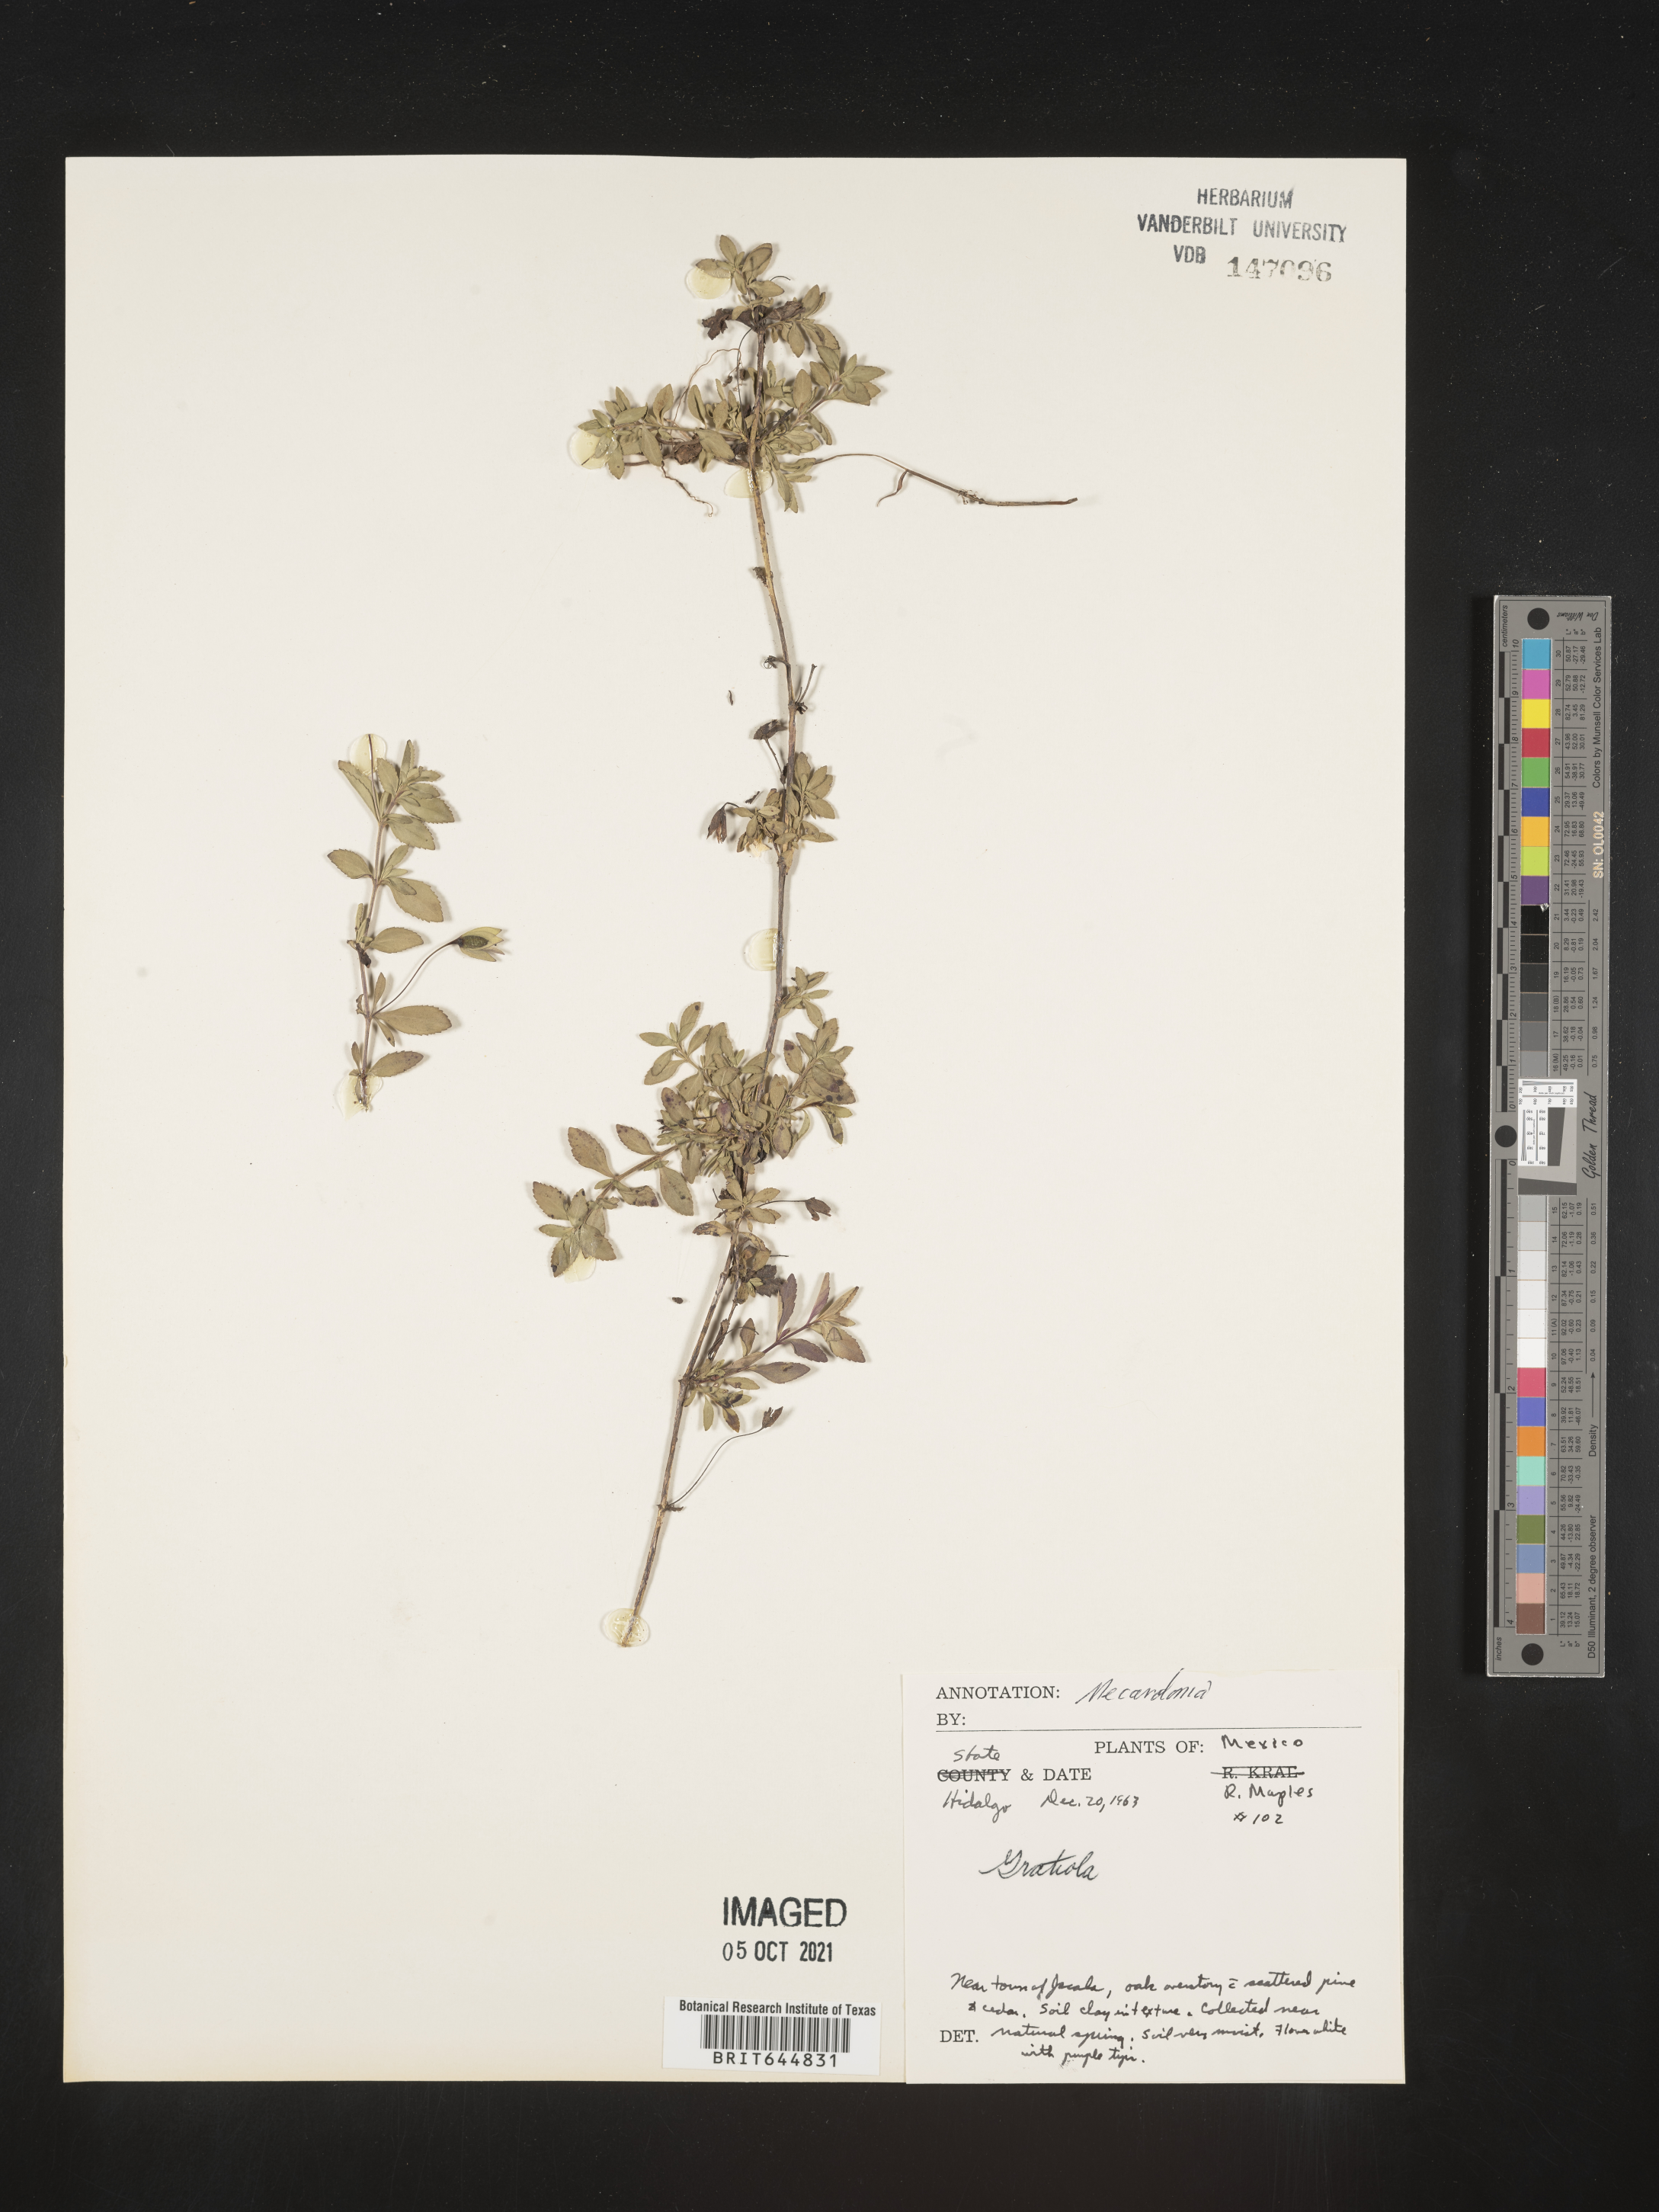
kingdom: Plantae
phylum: Tracheophyta
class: Magnoliopsida
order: Lamiales
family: Plantaginaceae
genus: Mecardonia
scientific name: Mecardonia
